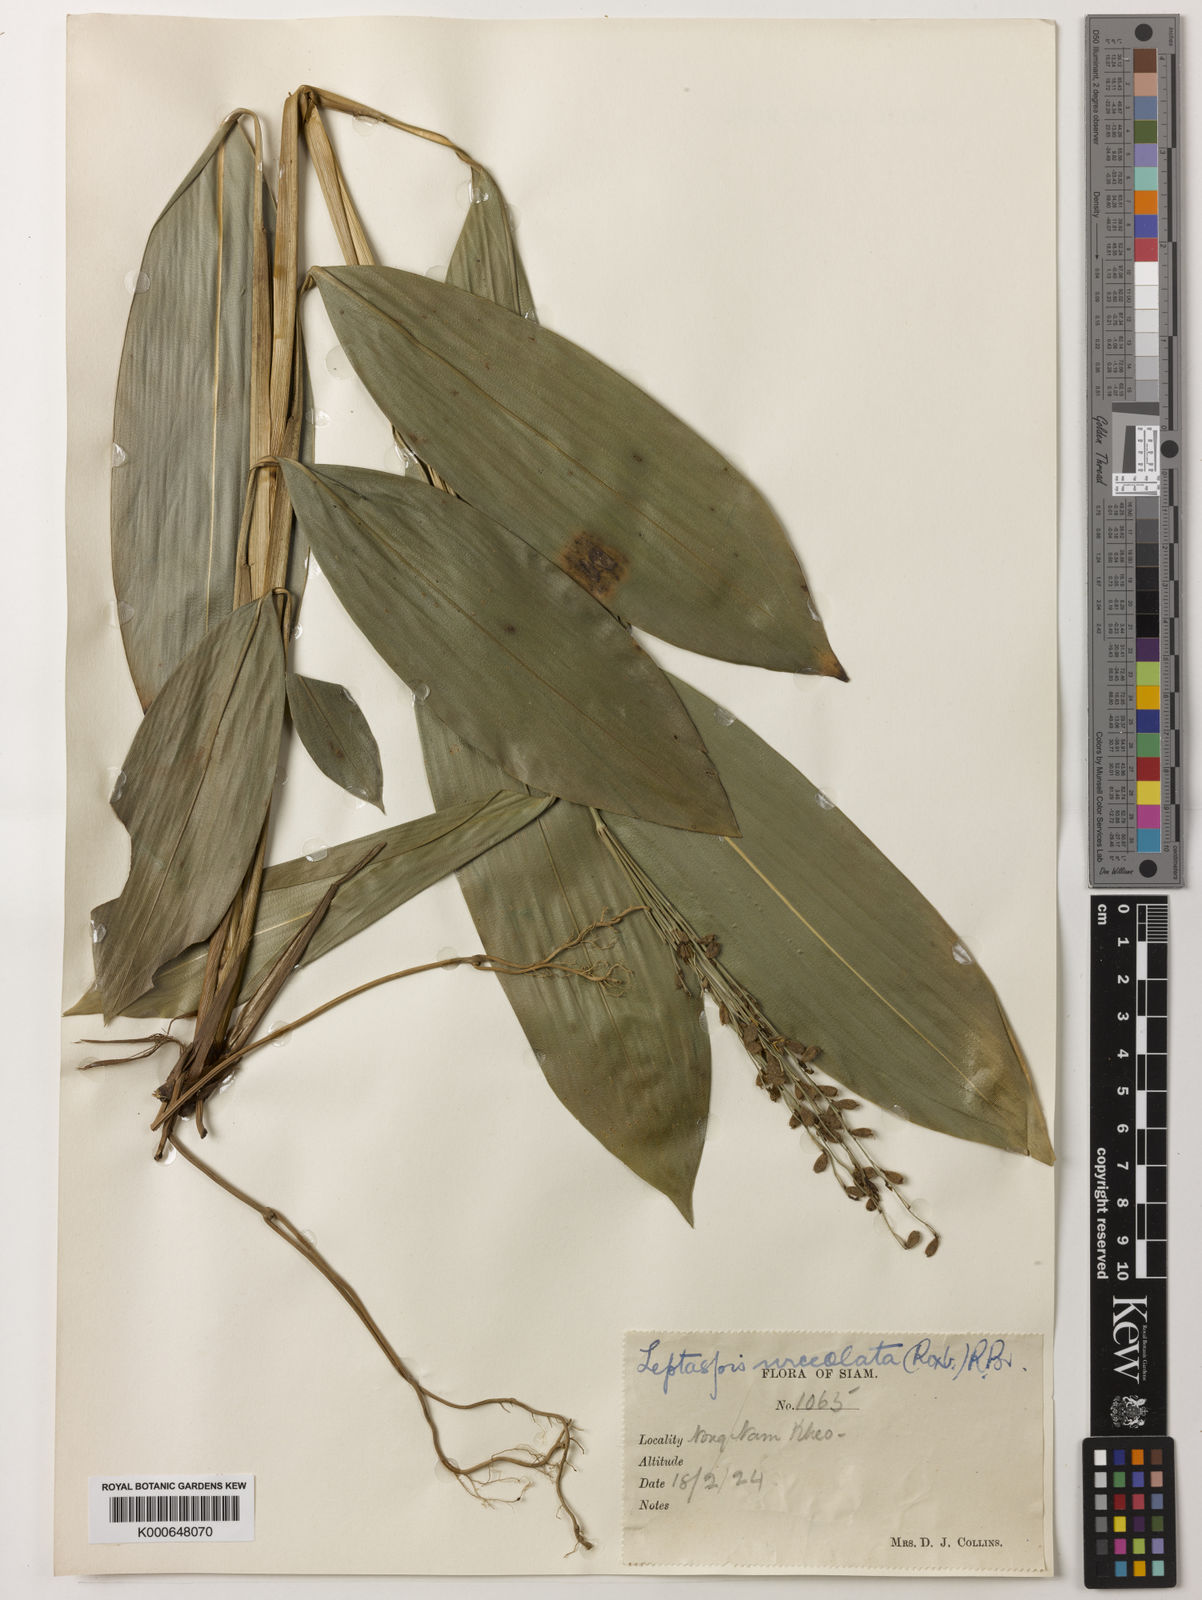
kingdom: Plantae
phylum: Tracheophyta
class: Liliopsida
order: Poales
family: Poaceae
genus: Scrotochloa
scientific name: Scrotochloa urceolata
